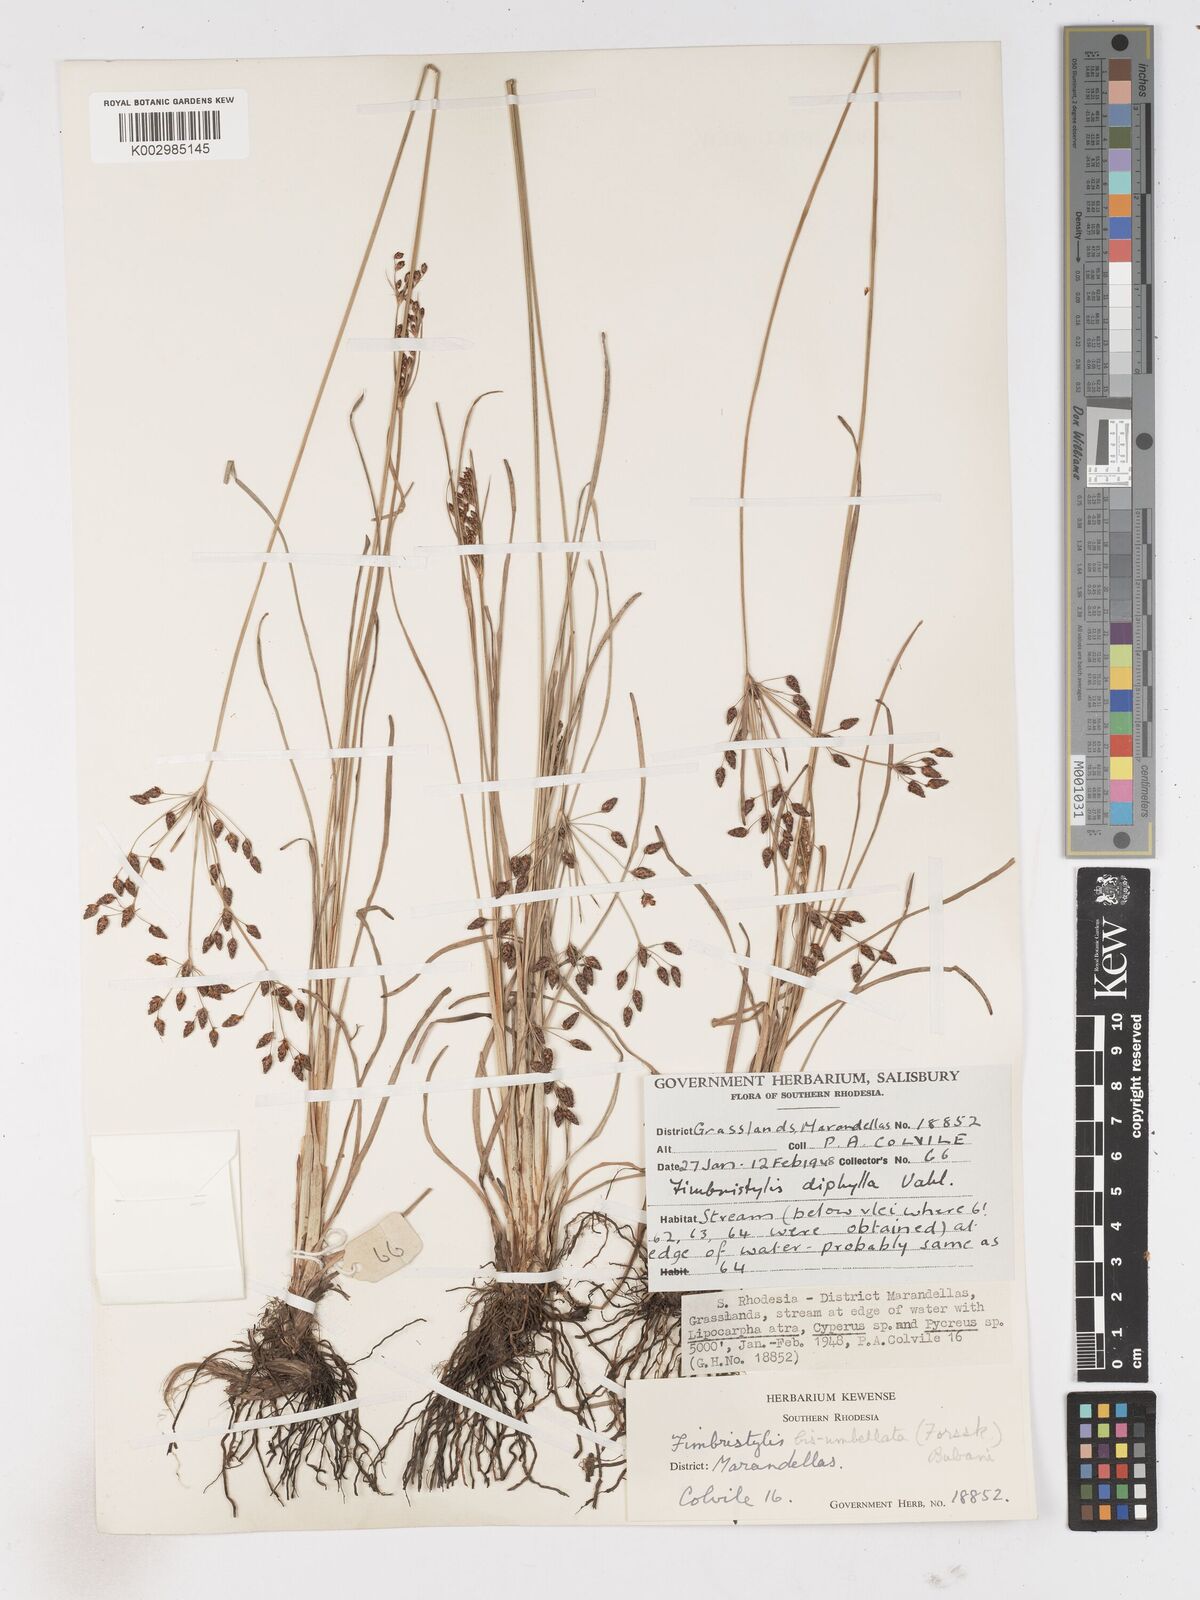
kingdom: Plantae
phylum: Tracheophyta
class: Liliopsida
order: Poales
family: Cyperaceae
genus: Fimbristylis
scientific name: Fimbristylis dichotoma
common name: Forked fimbry
